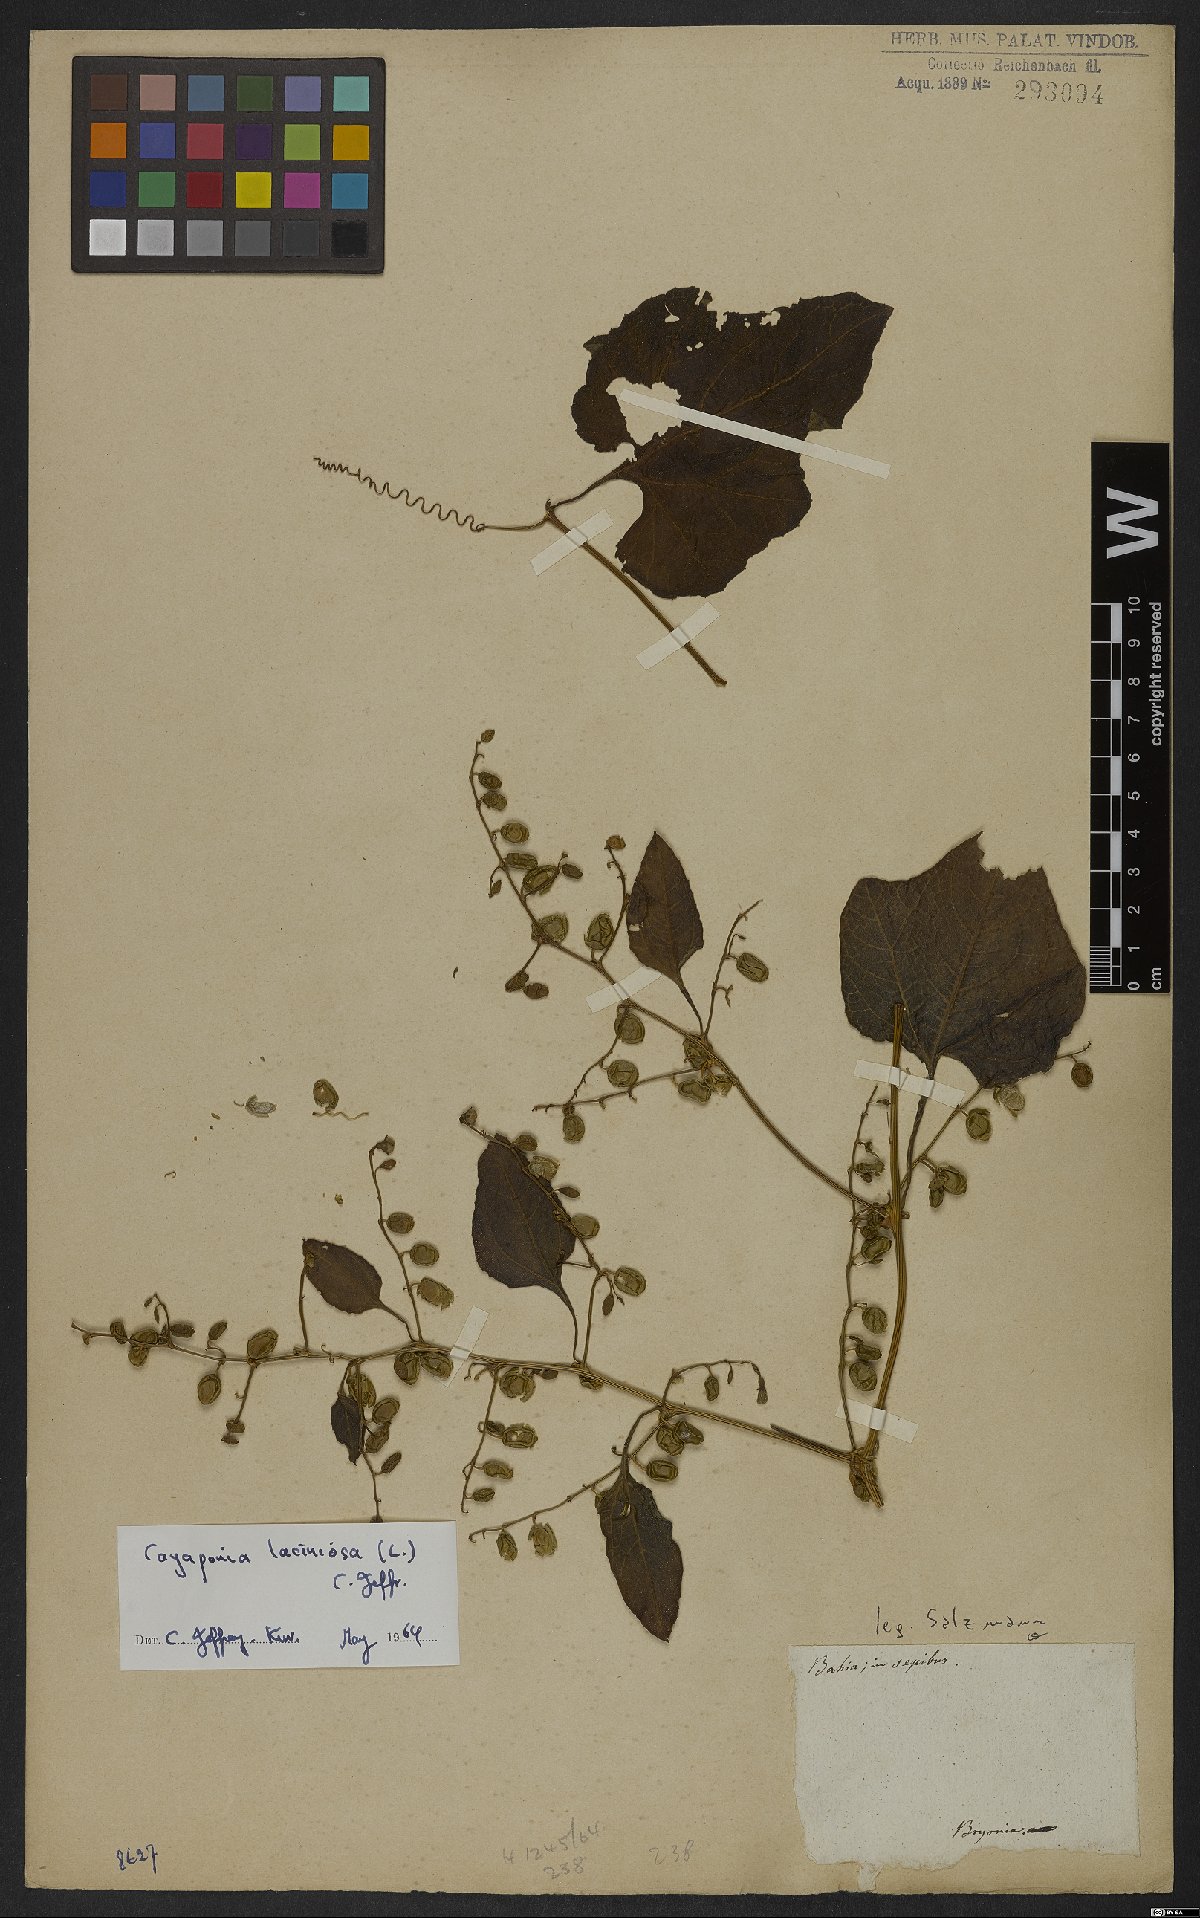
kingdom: Plantae
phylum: Tracheophyta
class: Magnoliopsida
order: Cucurbitales
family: Cucurbitaceae
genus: Diplocyclos
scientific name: Diplocyclos palmatus
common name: Striped-cucumber
